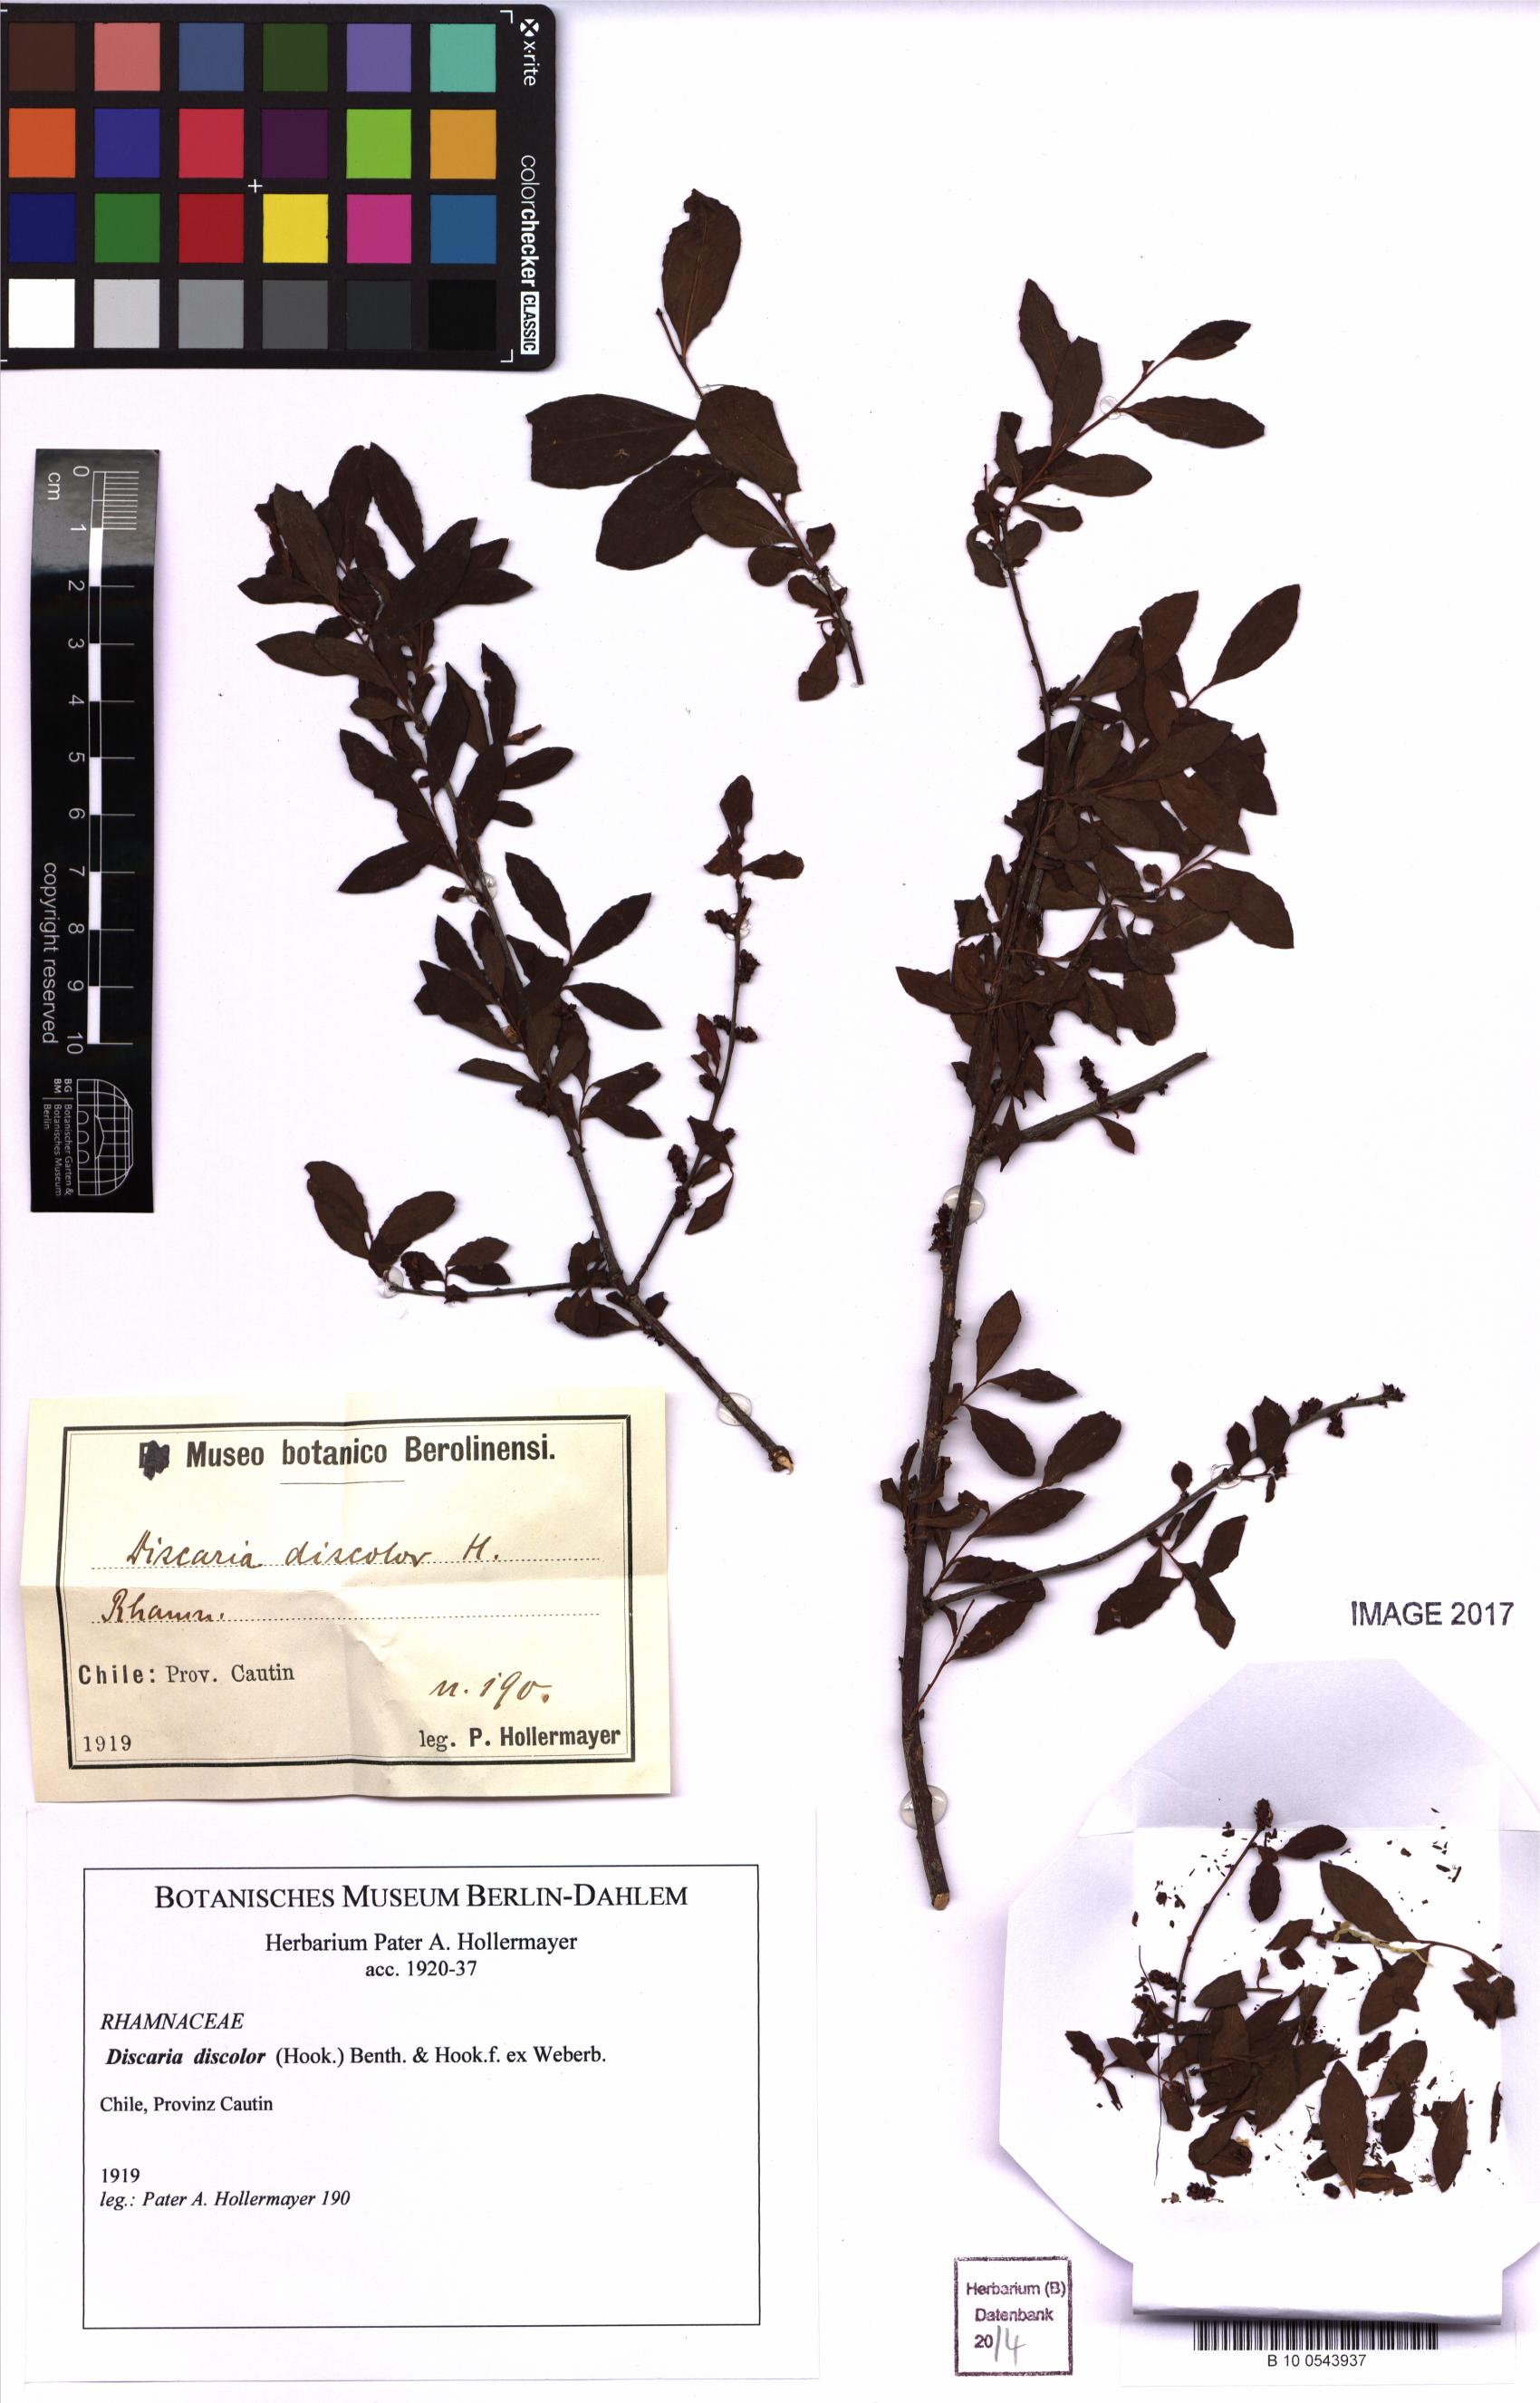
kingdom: Plantae
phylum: Tracheophyta
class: Magnoliopsida
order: Rosales
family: Rhamnaceae
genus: Discaria
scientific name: Discaria chacaye
